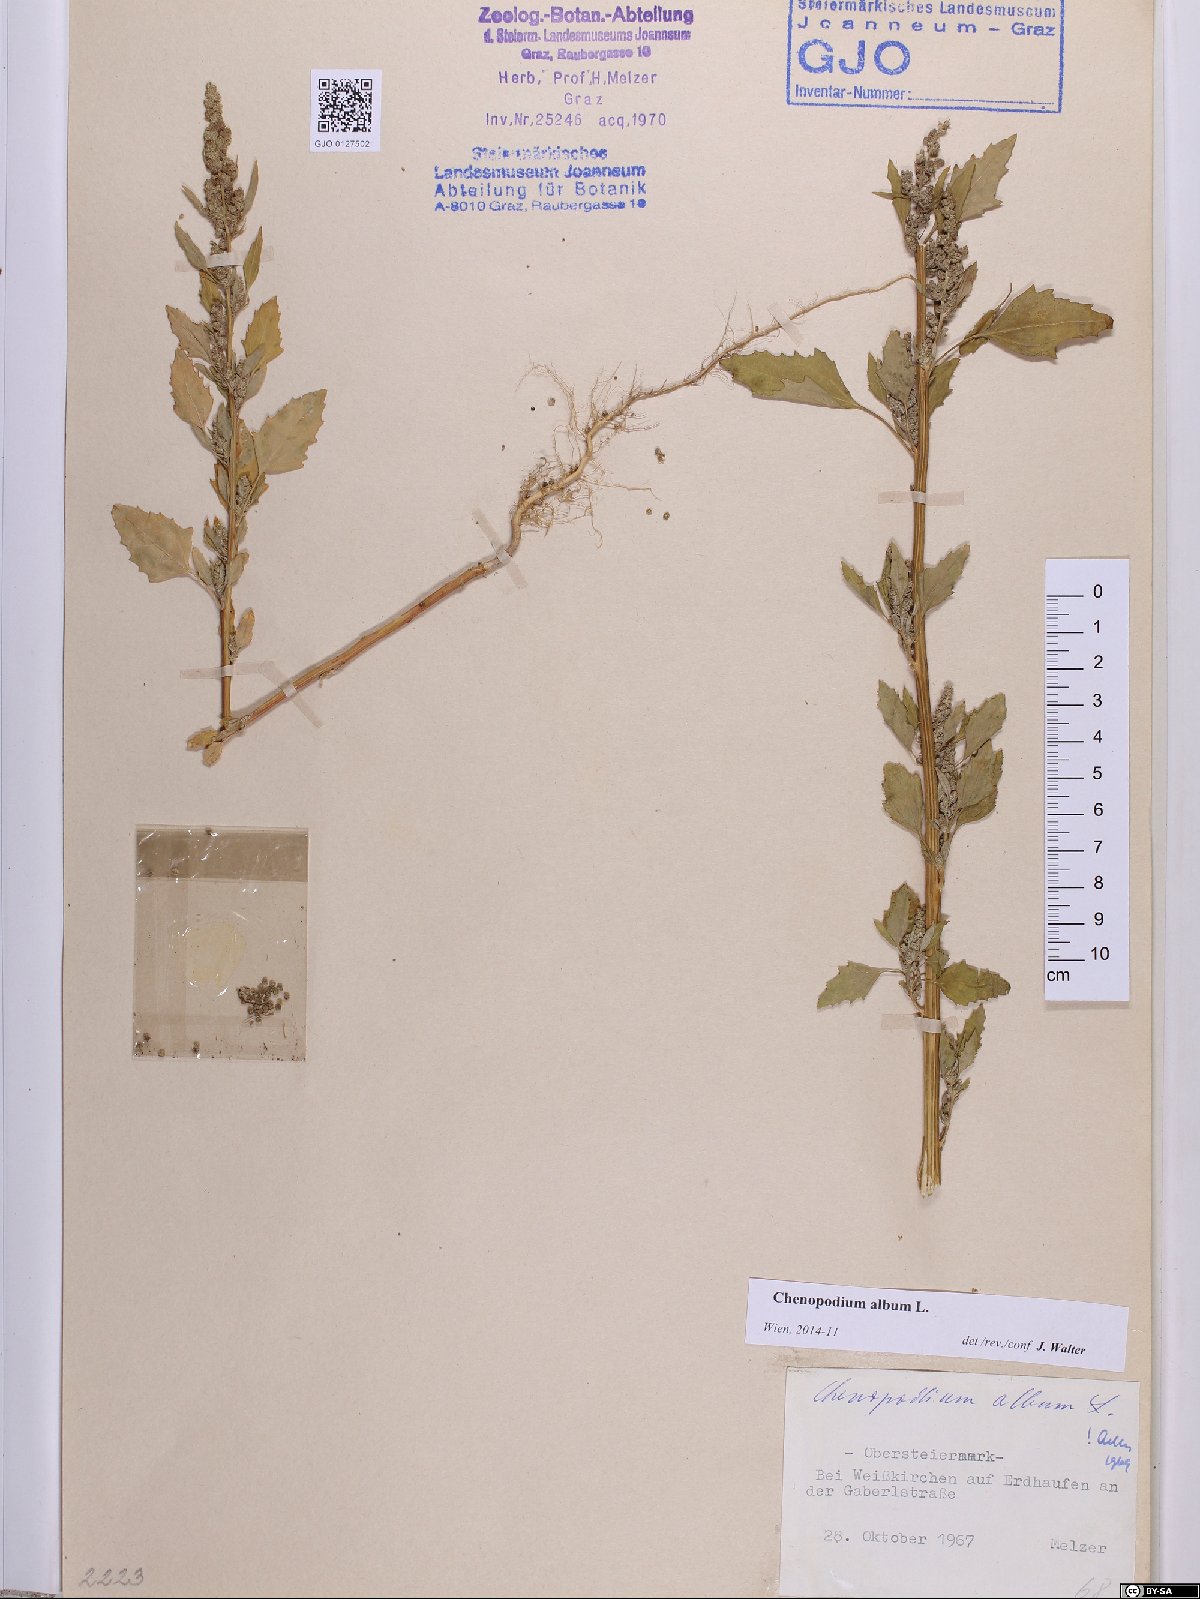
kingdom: Plantae
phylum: Tracheophyta
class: Magnoliopsida
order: Caryophyllales
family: Amaranthaceae
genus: Chenopodium
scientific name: Chenopodium album
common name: Fat-hen
